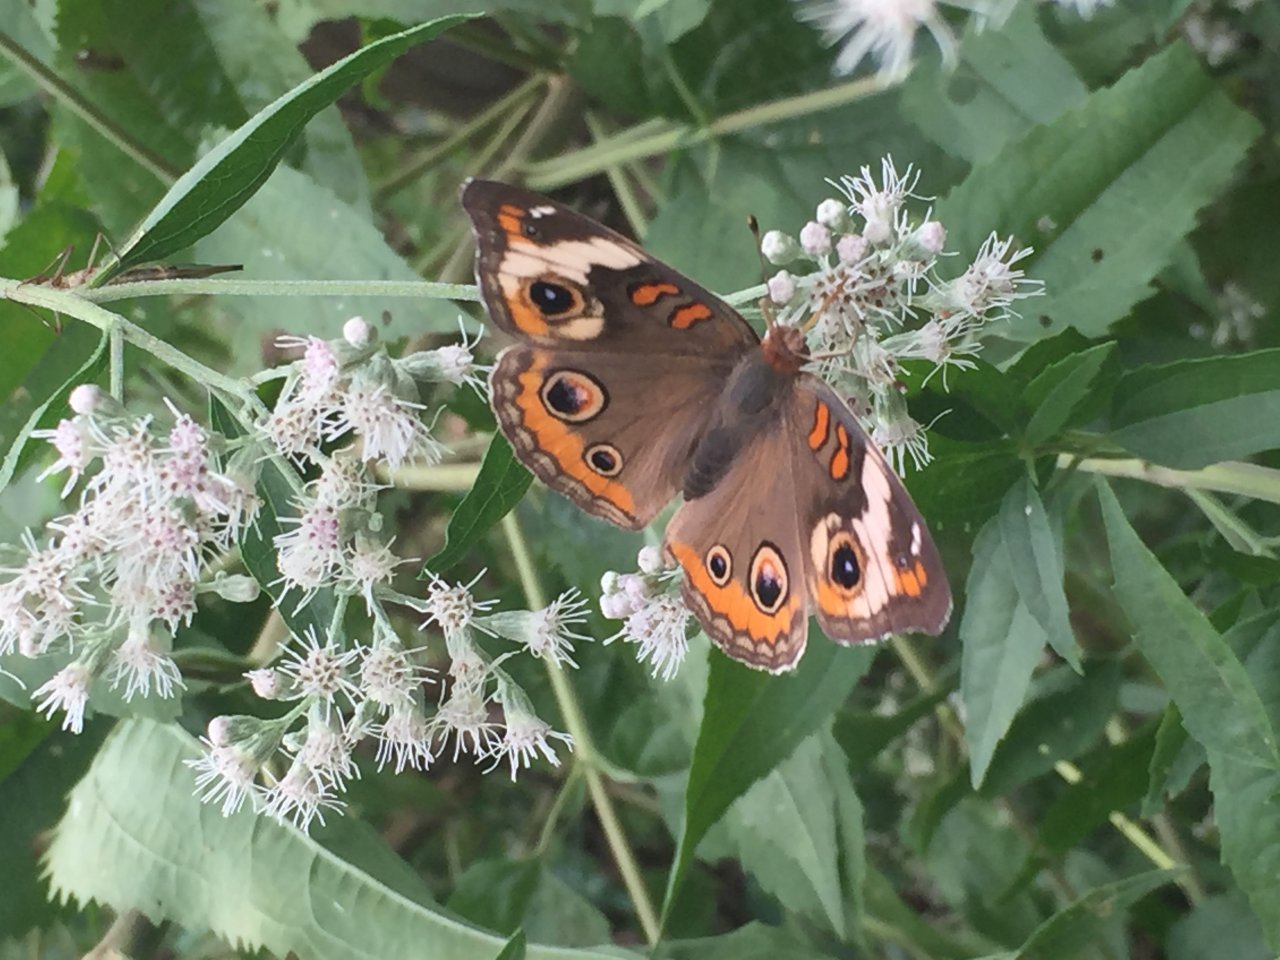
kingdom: Animalia
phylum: Arthropoda
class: Insecta
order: Lepidoptera
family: Nymphalidae
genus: Junonia
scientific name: Junonia coenia
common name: Common Buckeye
